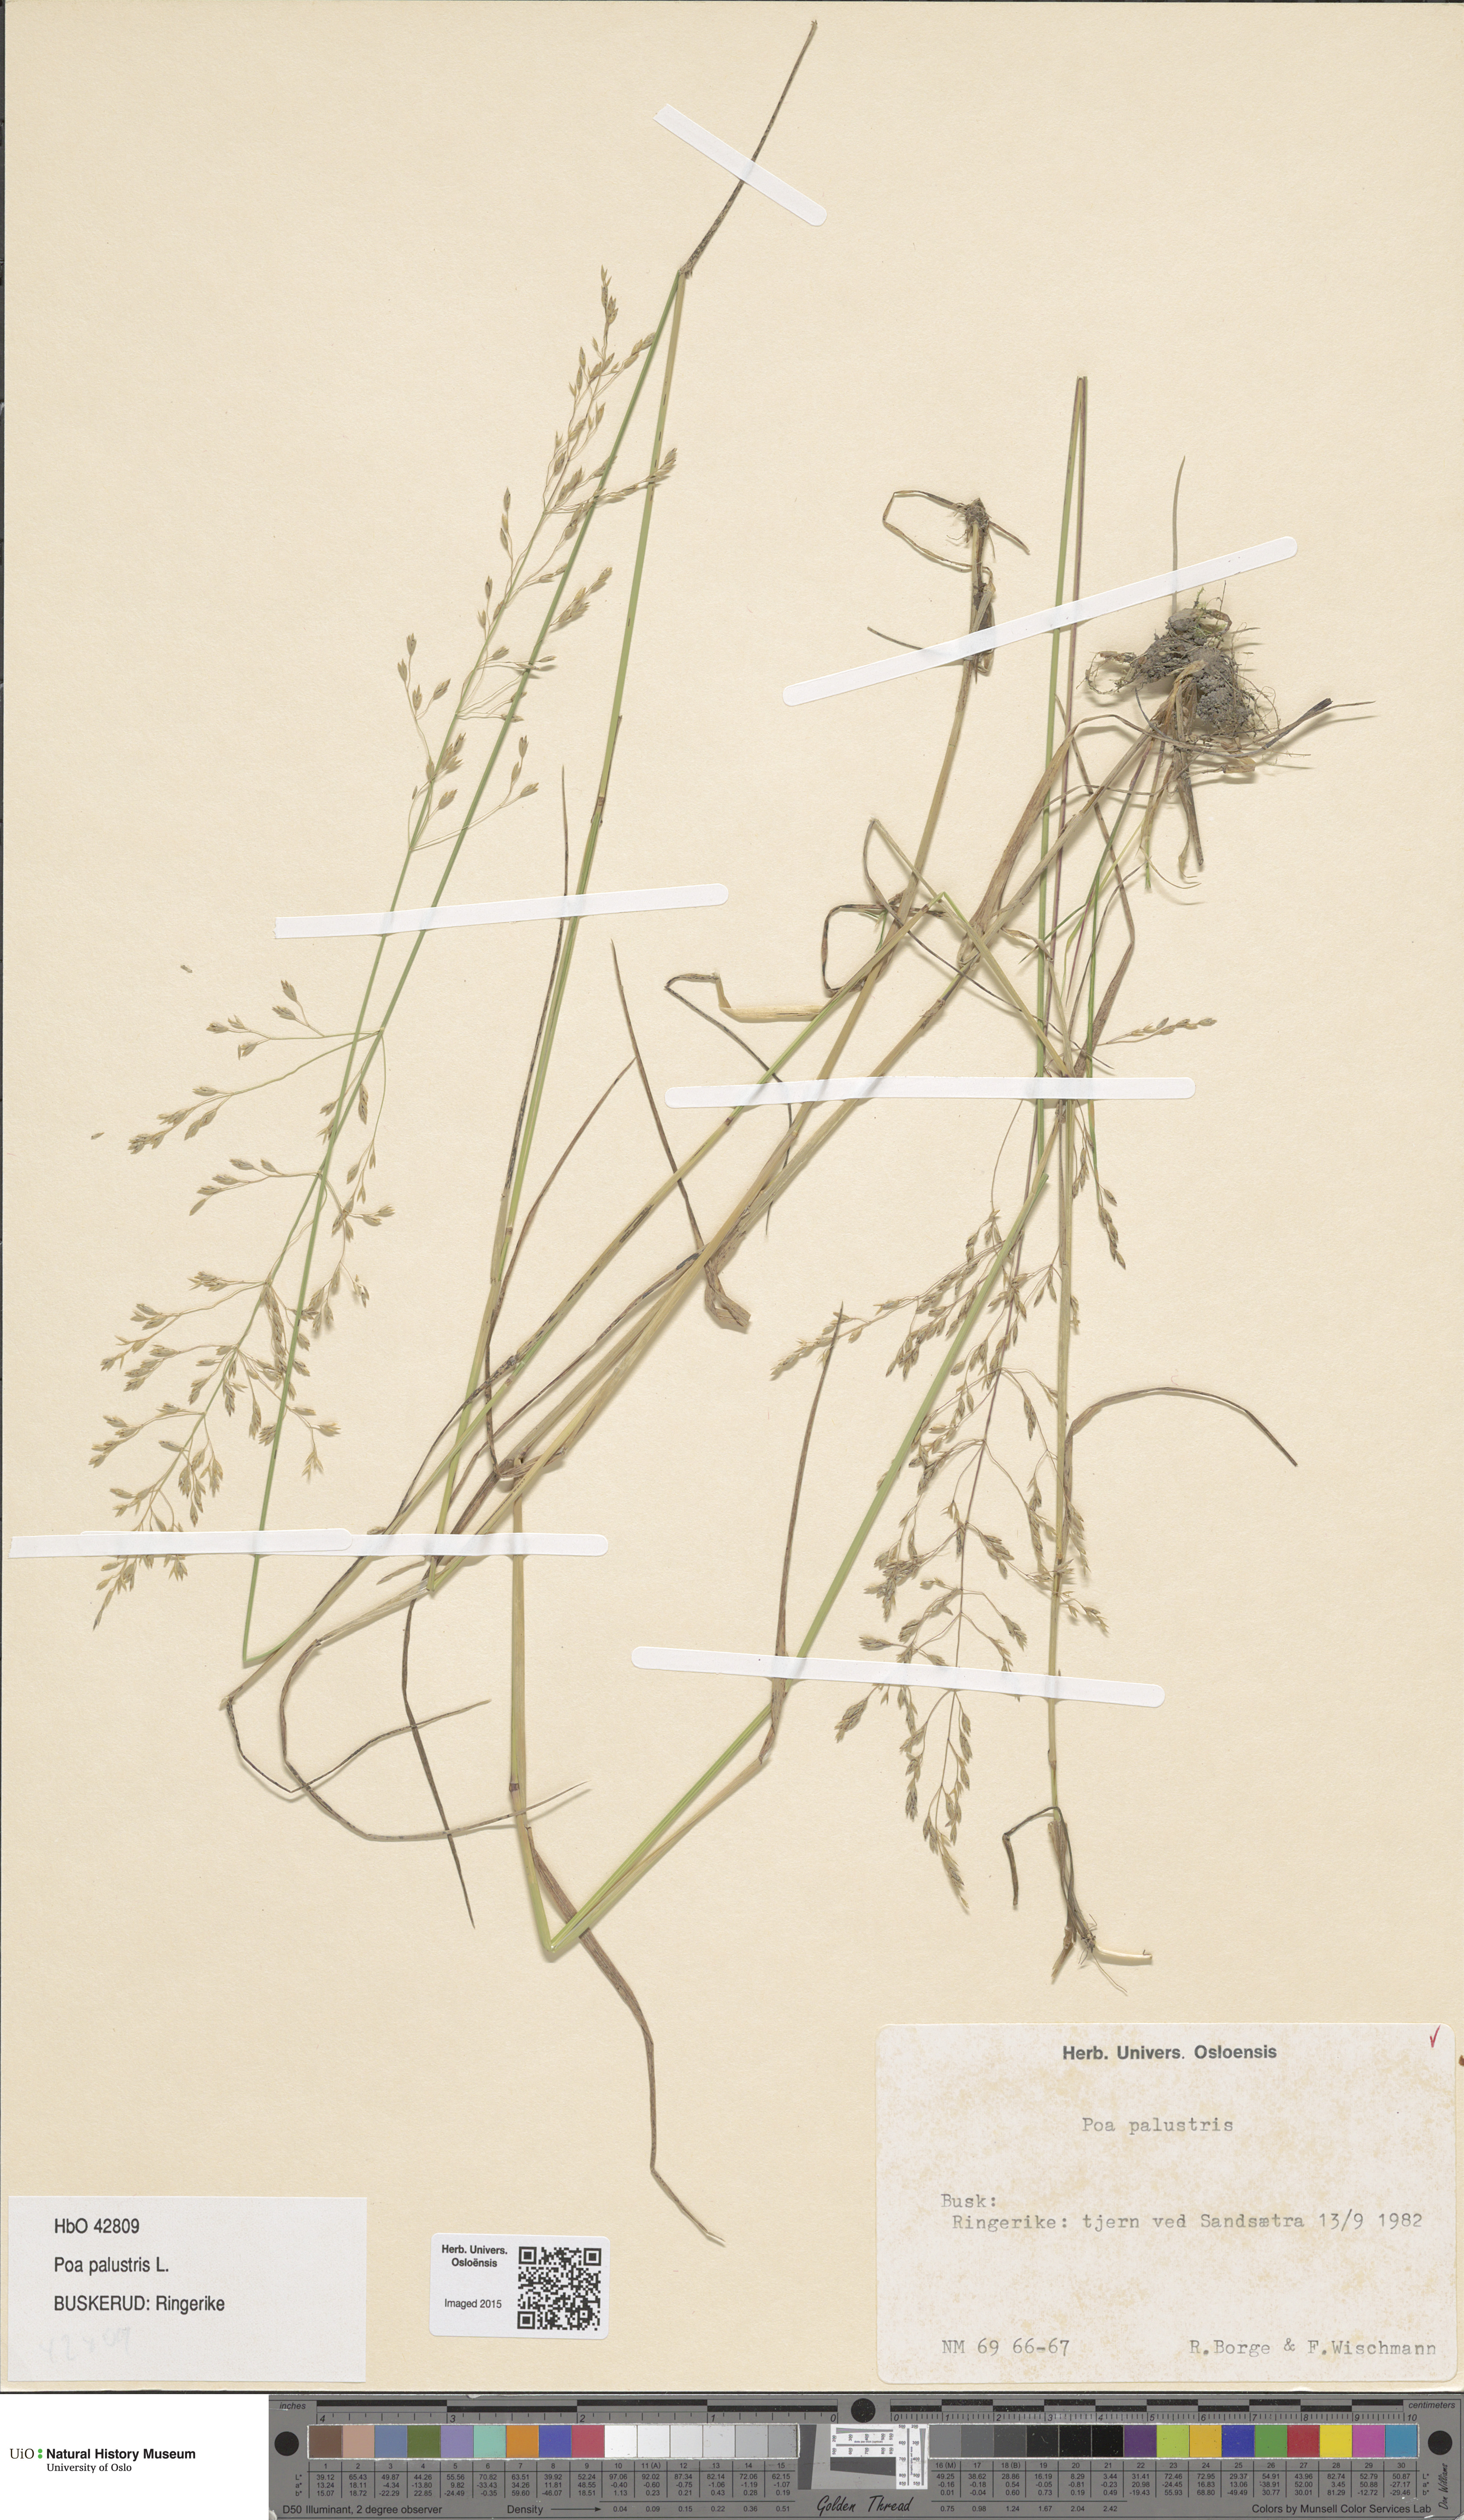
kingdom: Plantae
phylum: Tracheophyta
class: Liliopsida
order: Poales
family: Poaceae
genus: Poa
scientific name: Poa palustris
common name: Swamp meadow-grass
